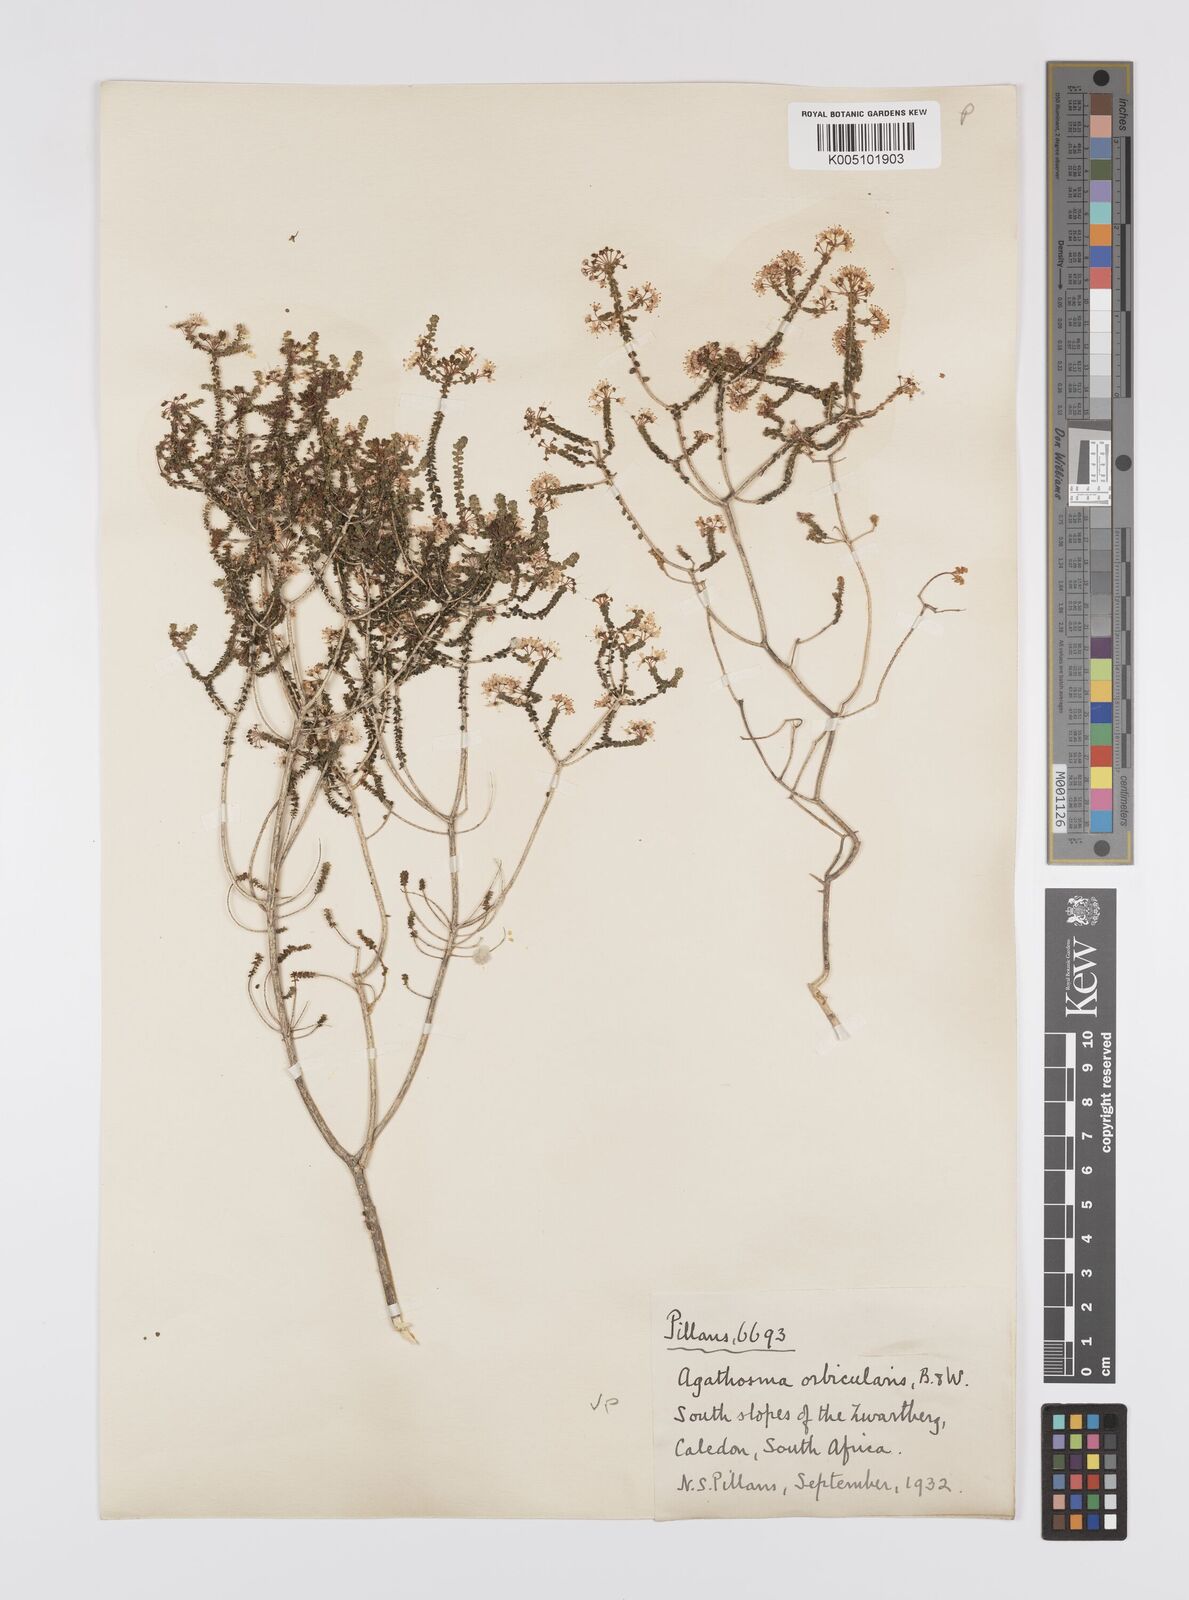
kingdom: Plantae
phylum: Tracheophyta
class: Magnoliopsida
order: Sapindales
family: Rutaceae
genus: Agathosma
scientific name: Agathosma orbicularis
